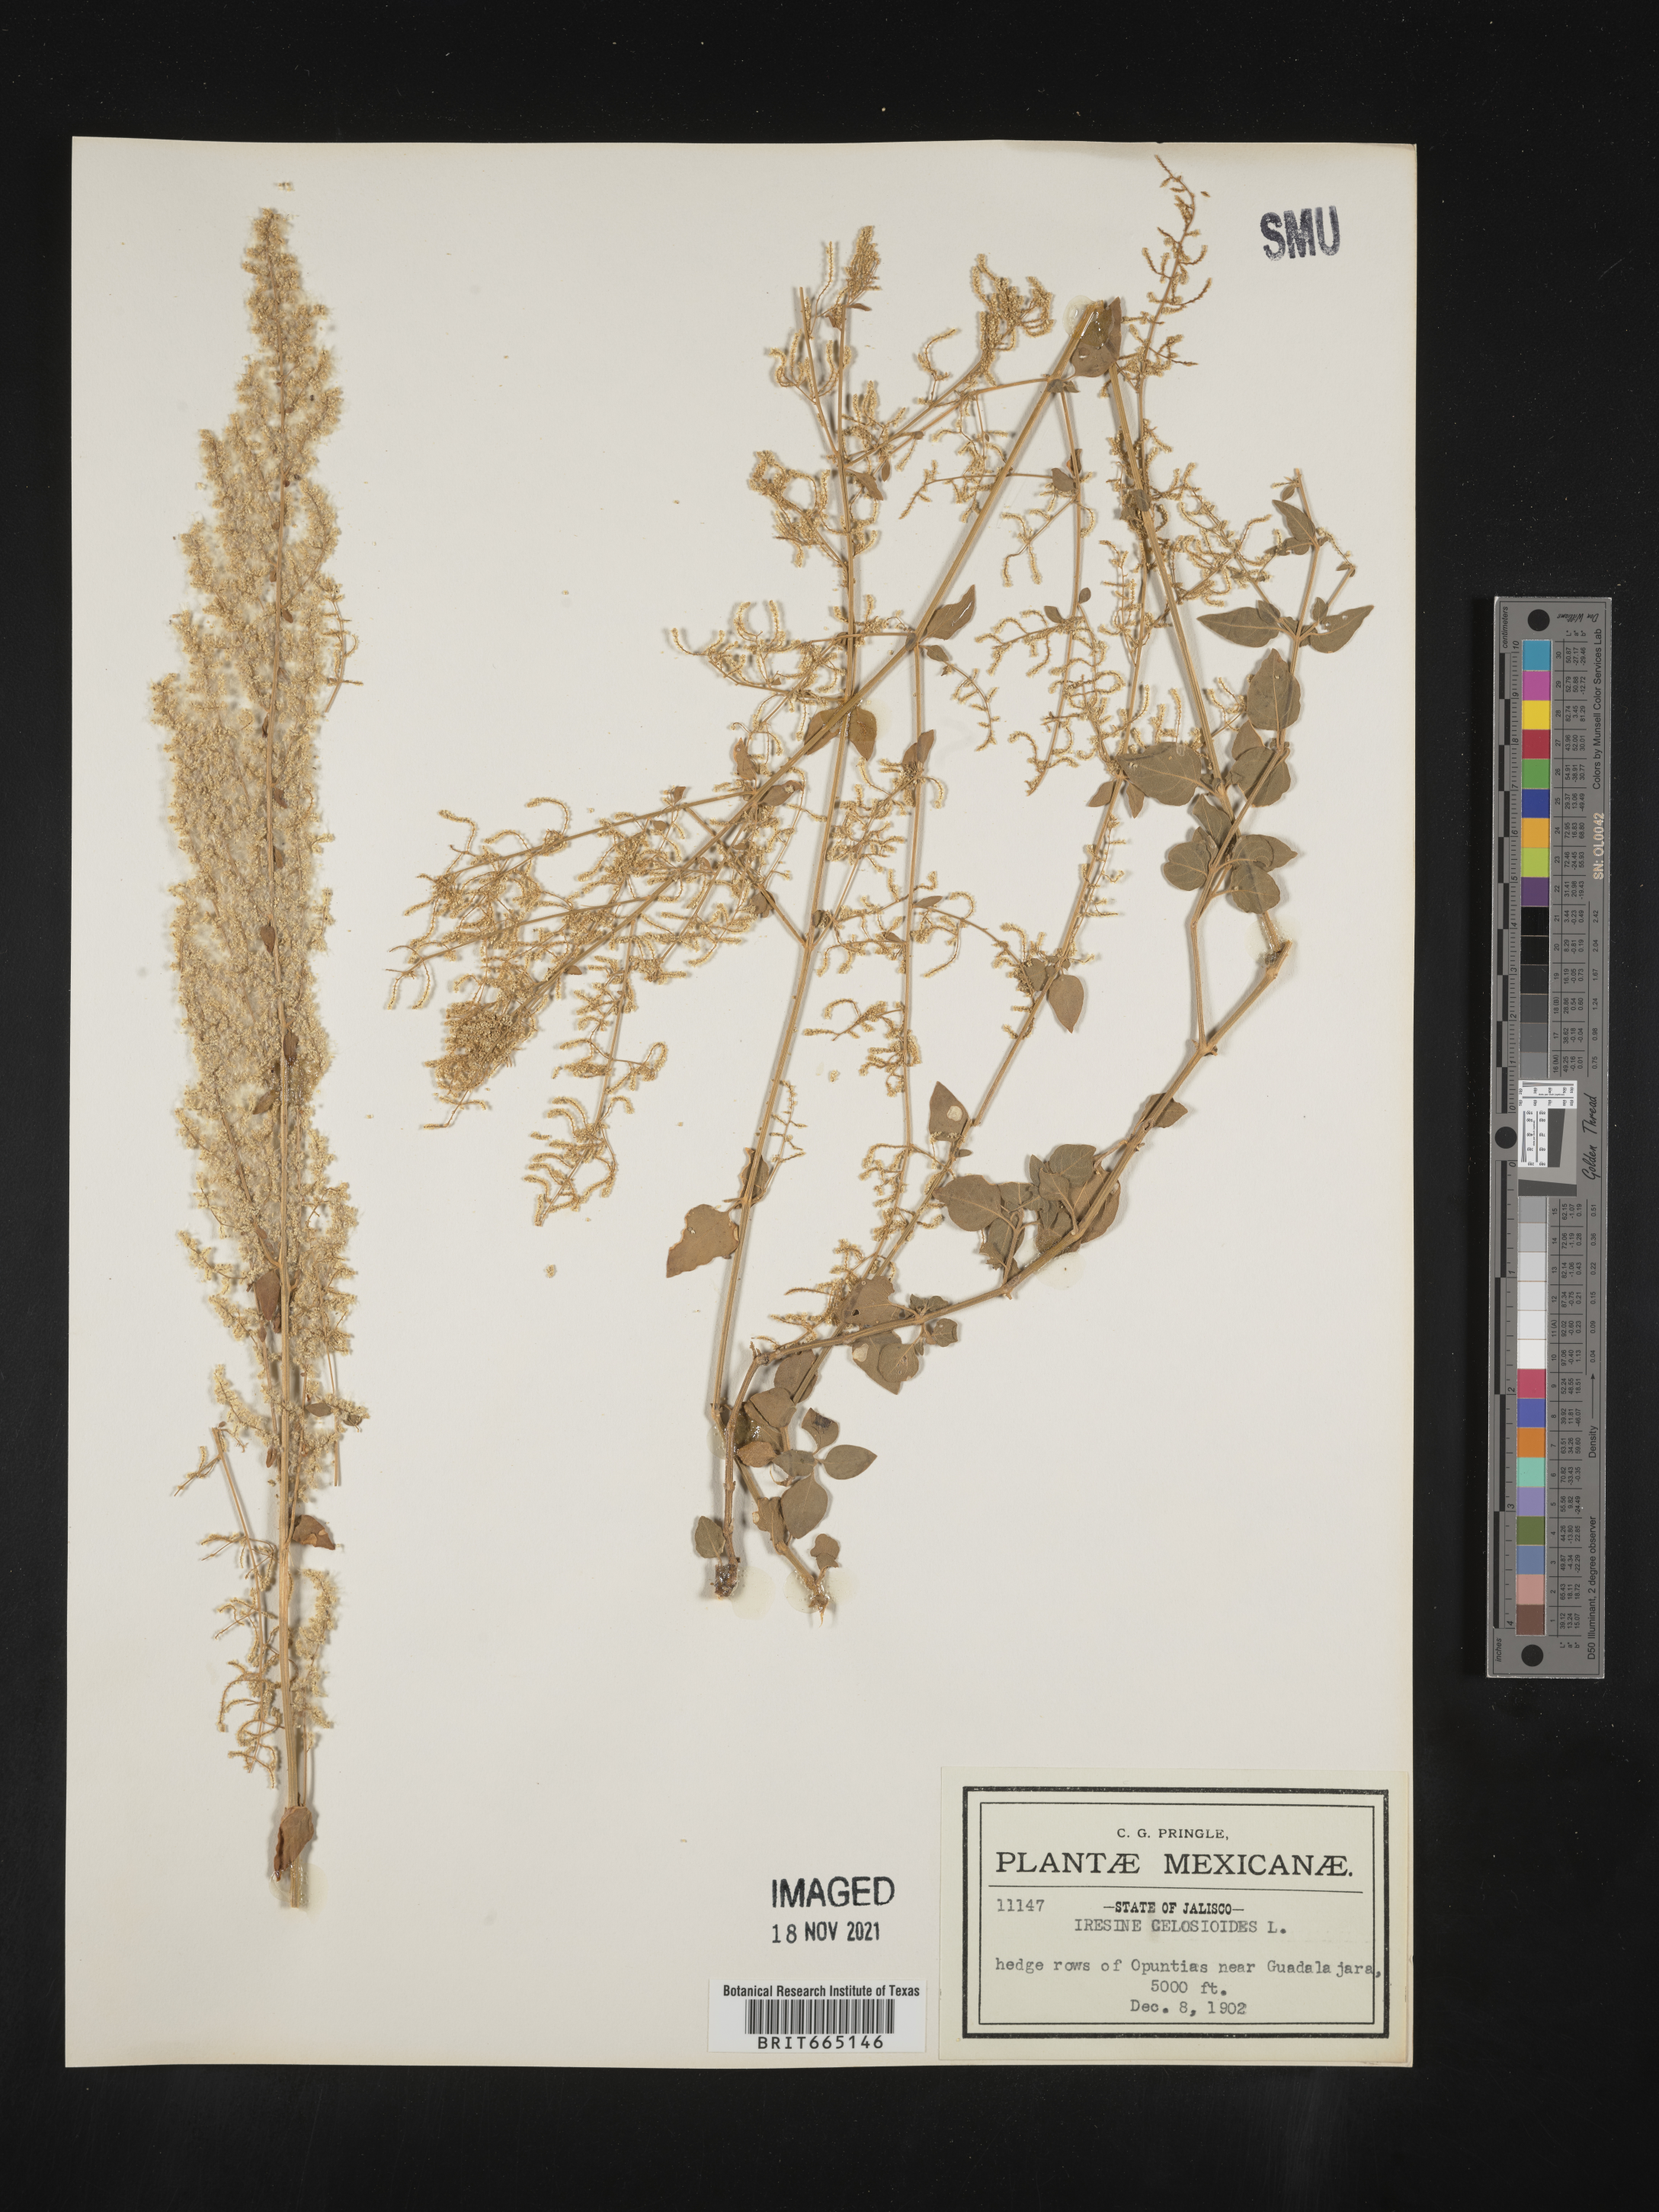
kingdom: Plantae
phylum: Tracheophyta
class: Magnoliopsida
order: Caryophyllales
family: Amaranthaceae
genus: Iresine
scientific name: Iresine
